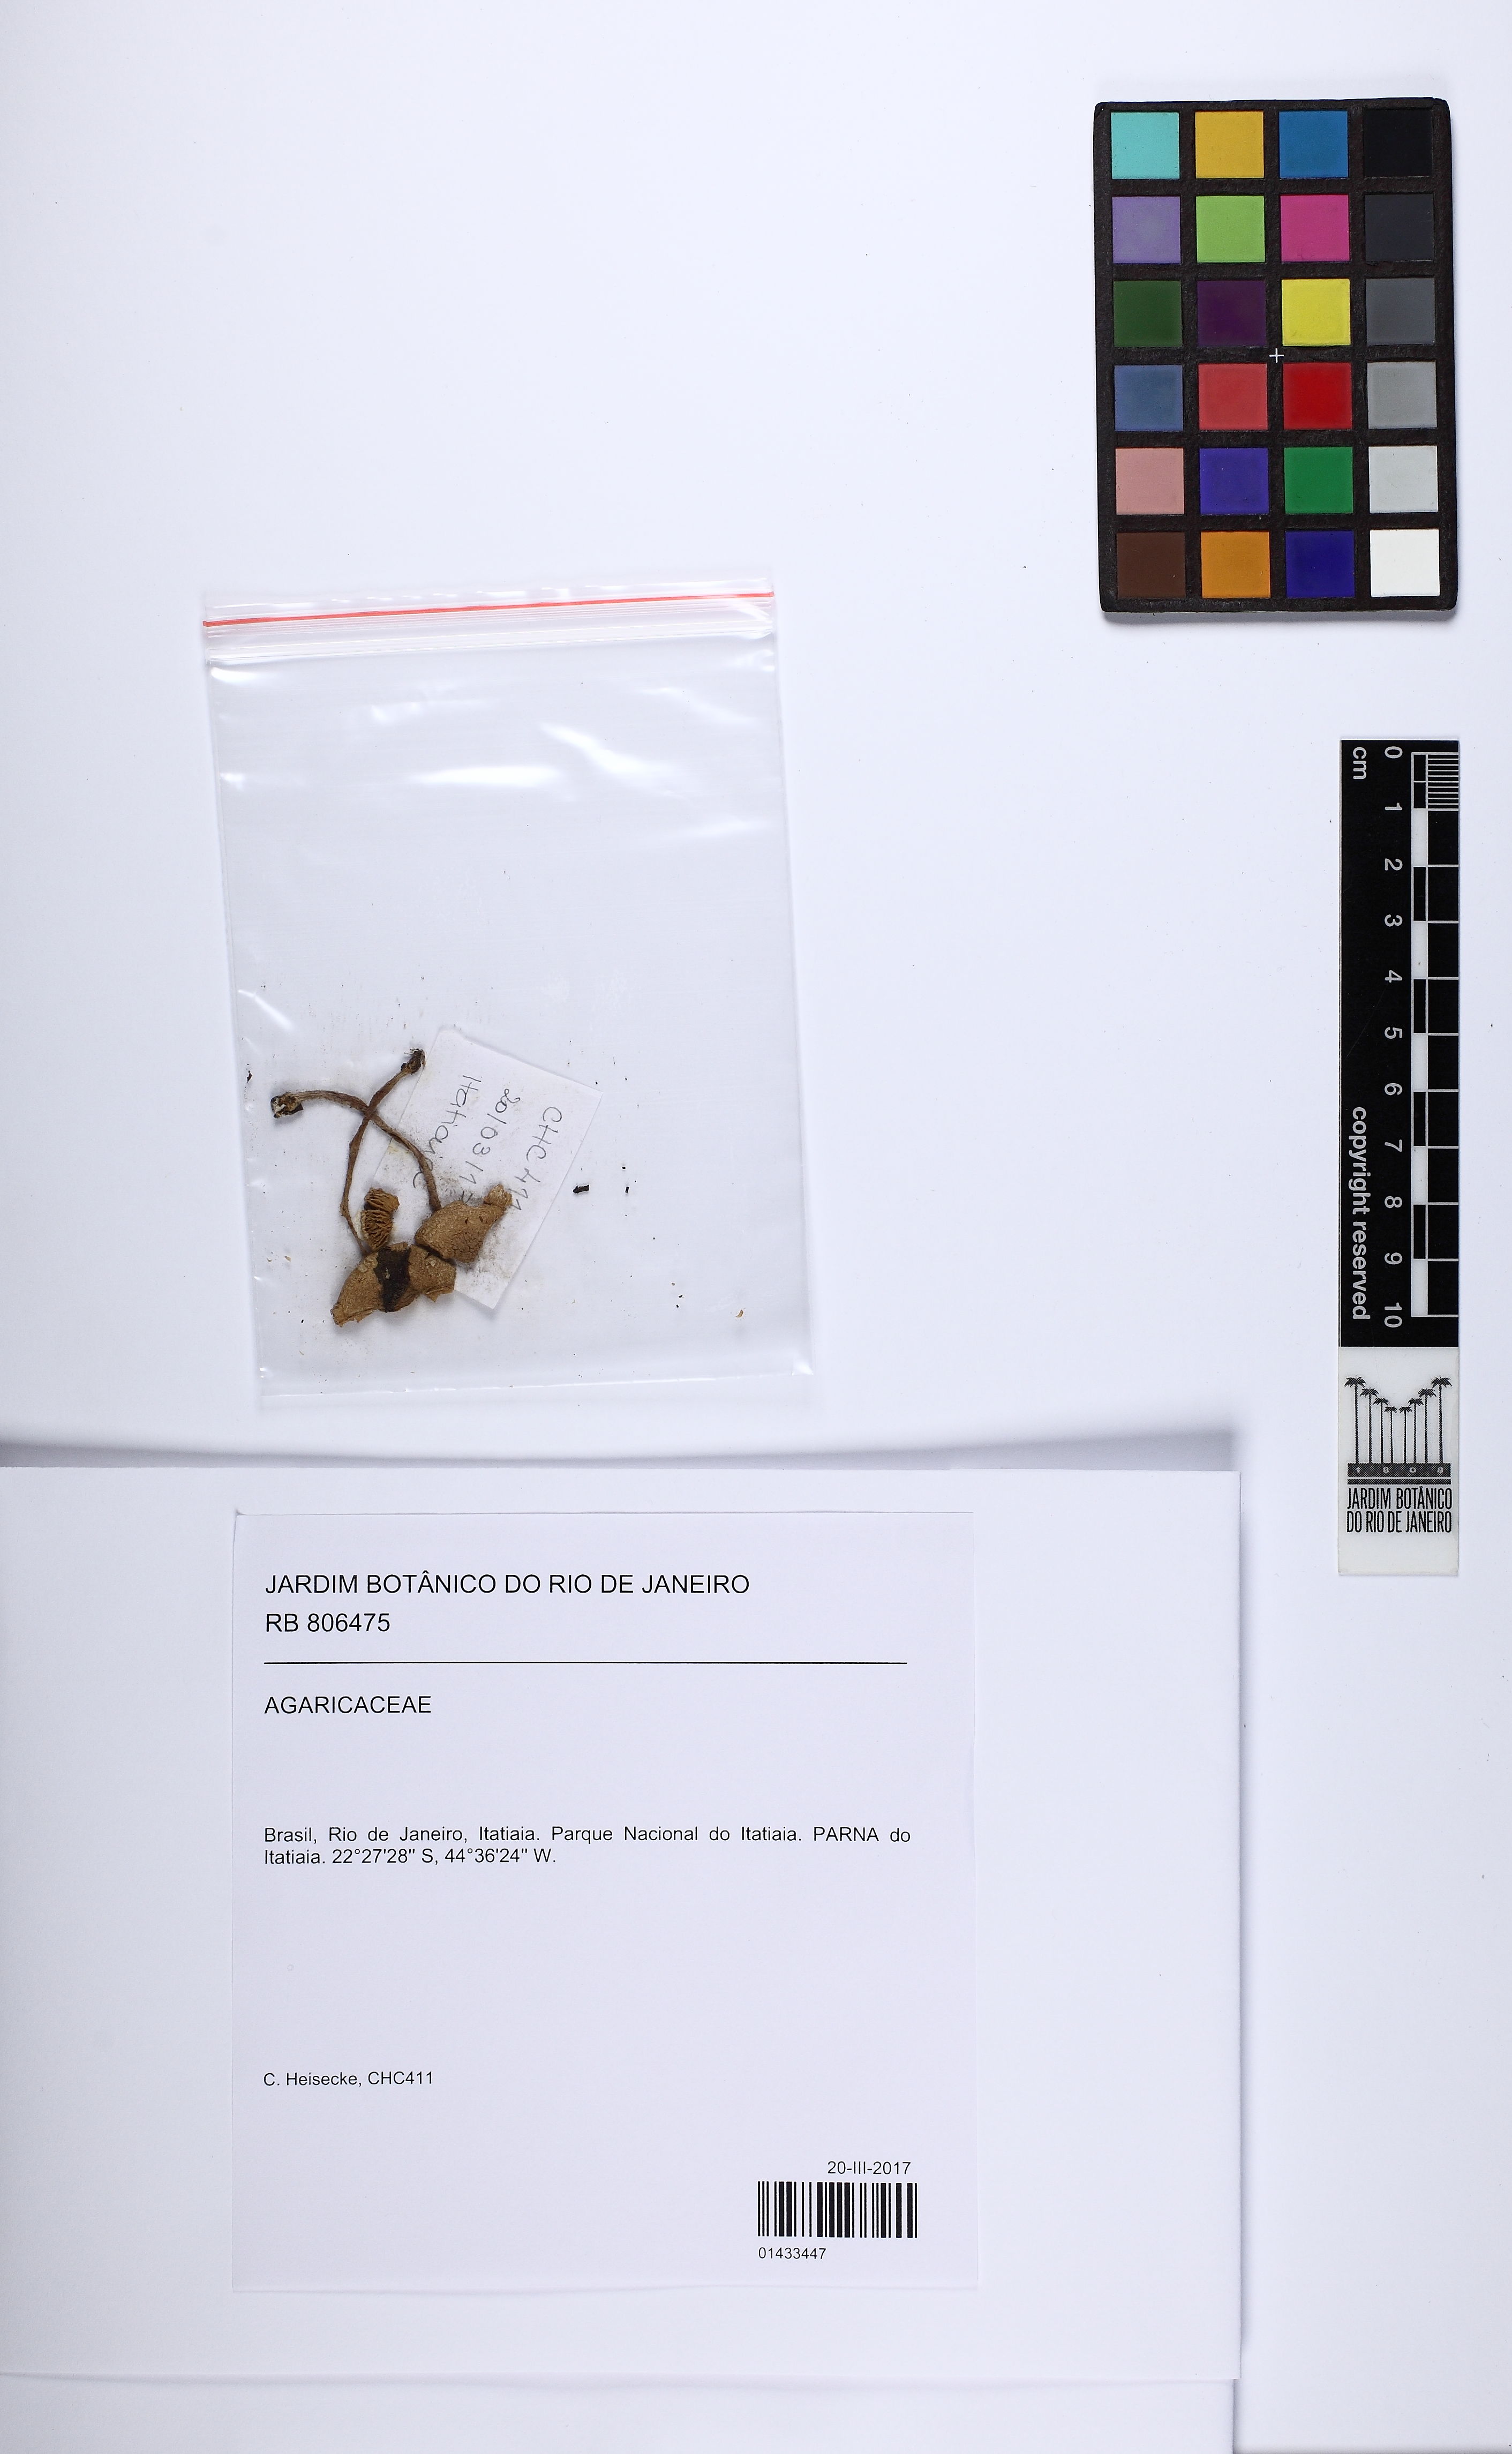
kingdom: Fungi
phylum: Basidiomycota
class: Agaricomycetes
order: Agaricales
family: Agaricaceae
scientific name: Agaricaceae
